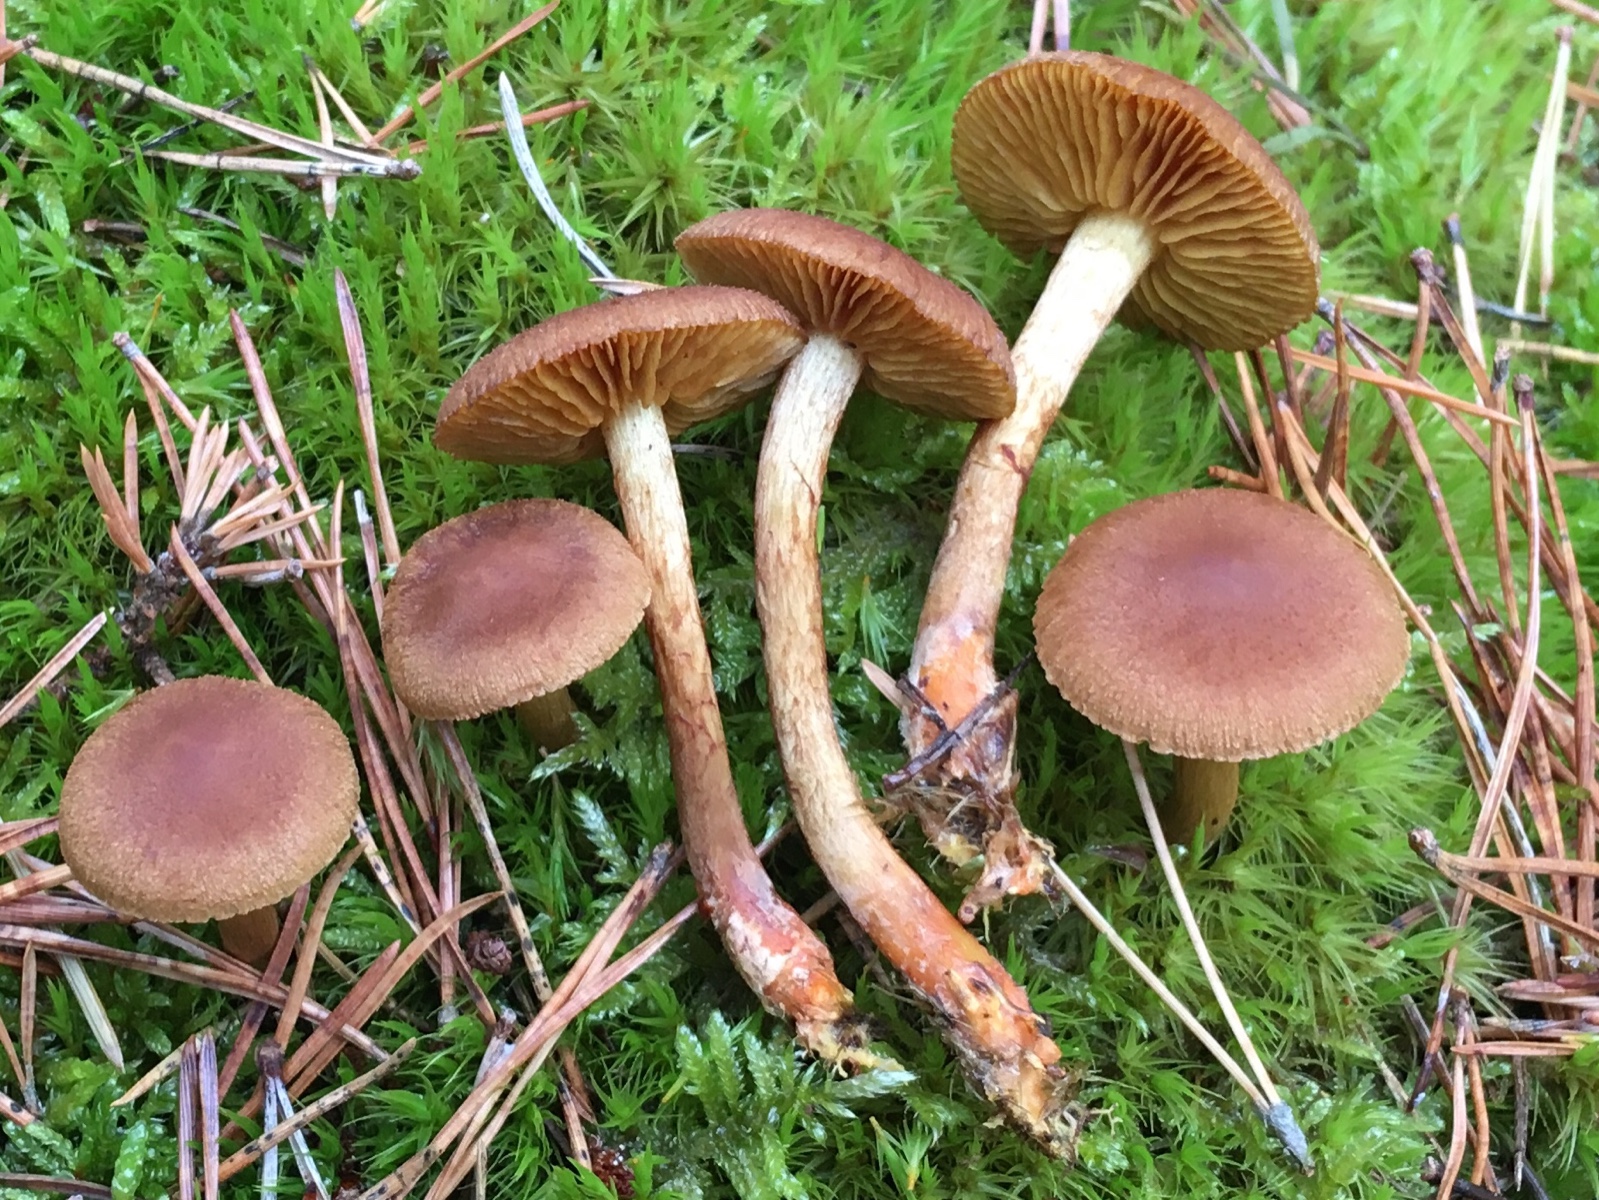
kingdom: Fungi
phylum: Basidiomycota
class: Agaricomycetes
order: Agaricales
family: Cortinariaceae
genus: Cortinarius
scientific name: Cortinarius bataillei
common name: orangefodet slørhat
